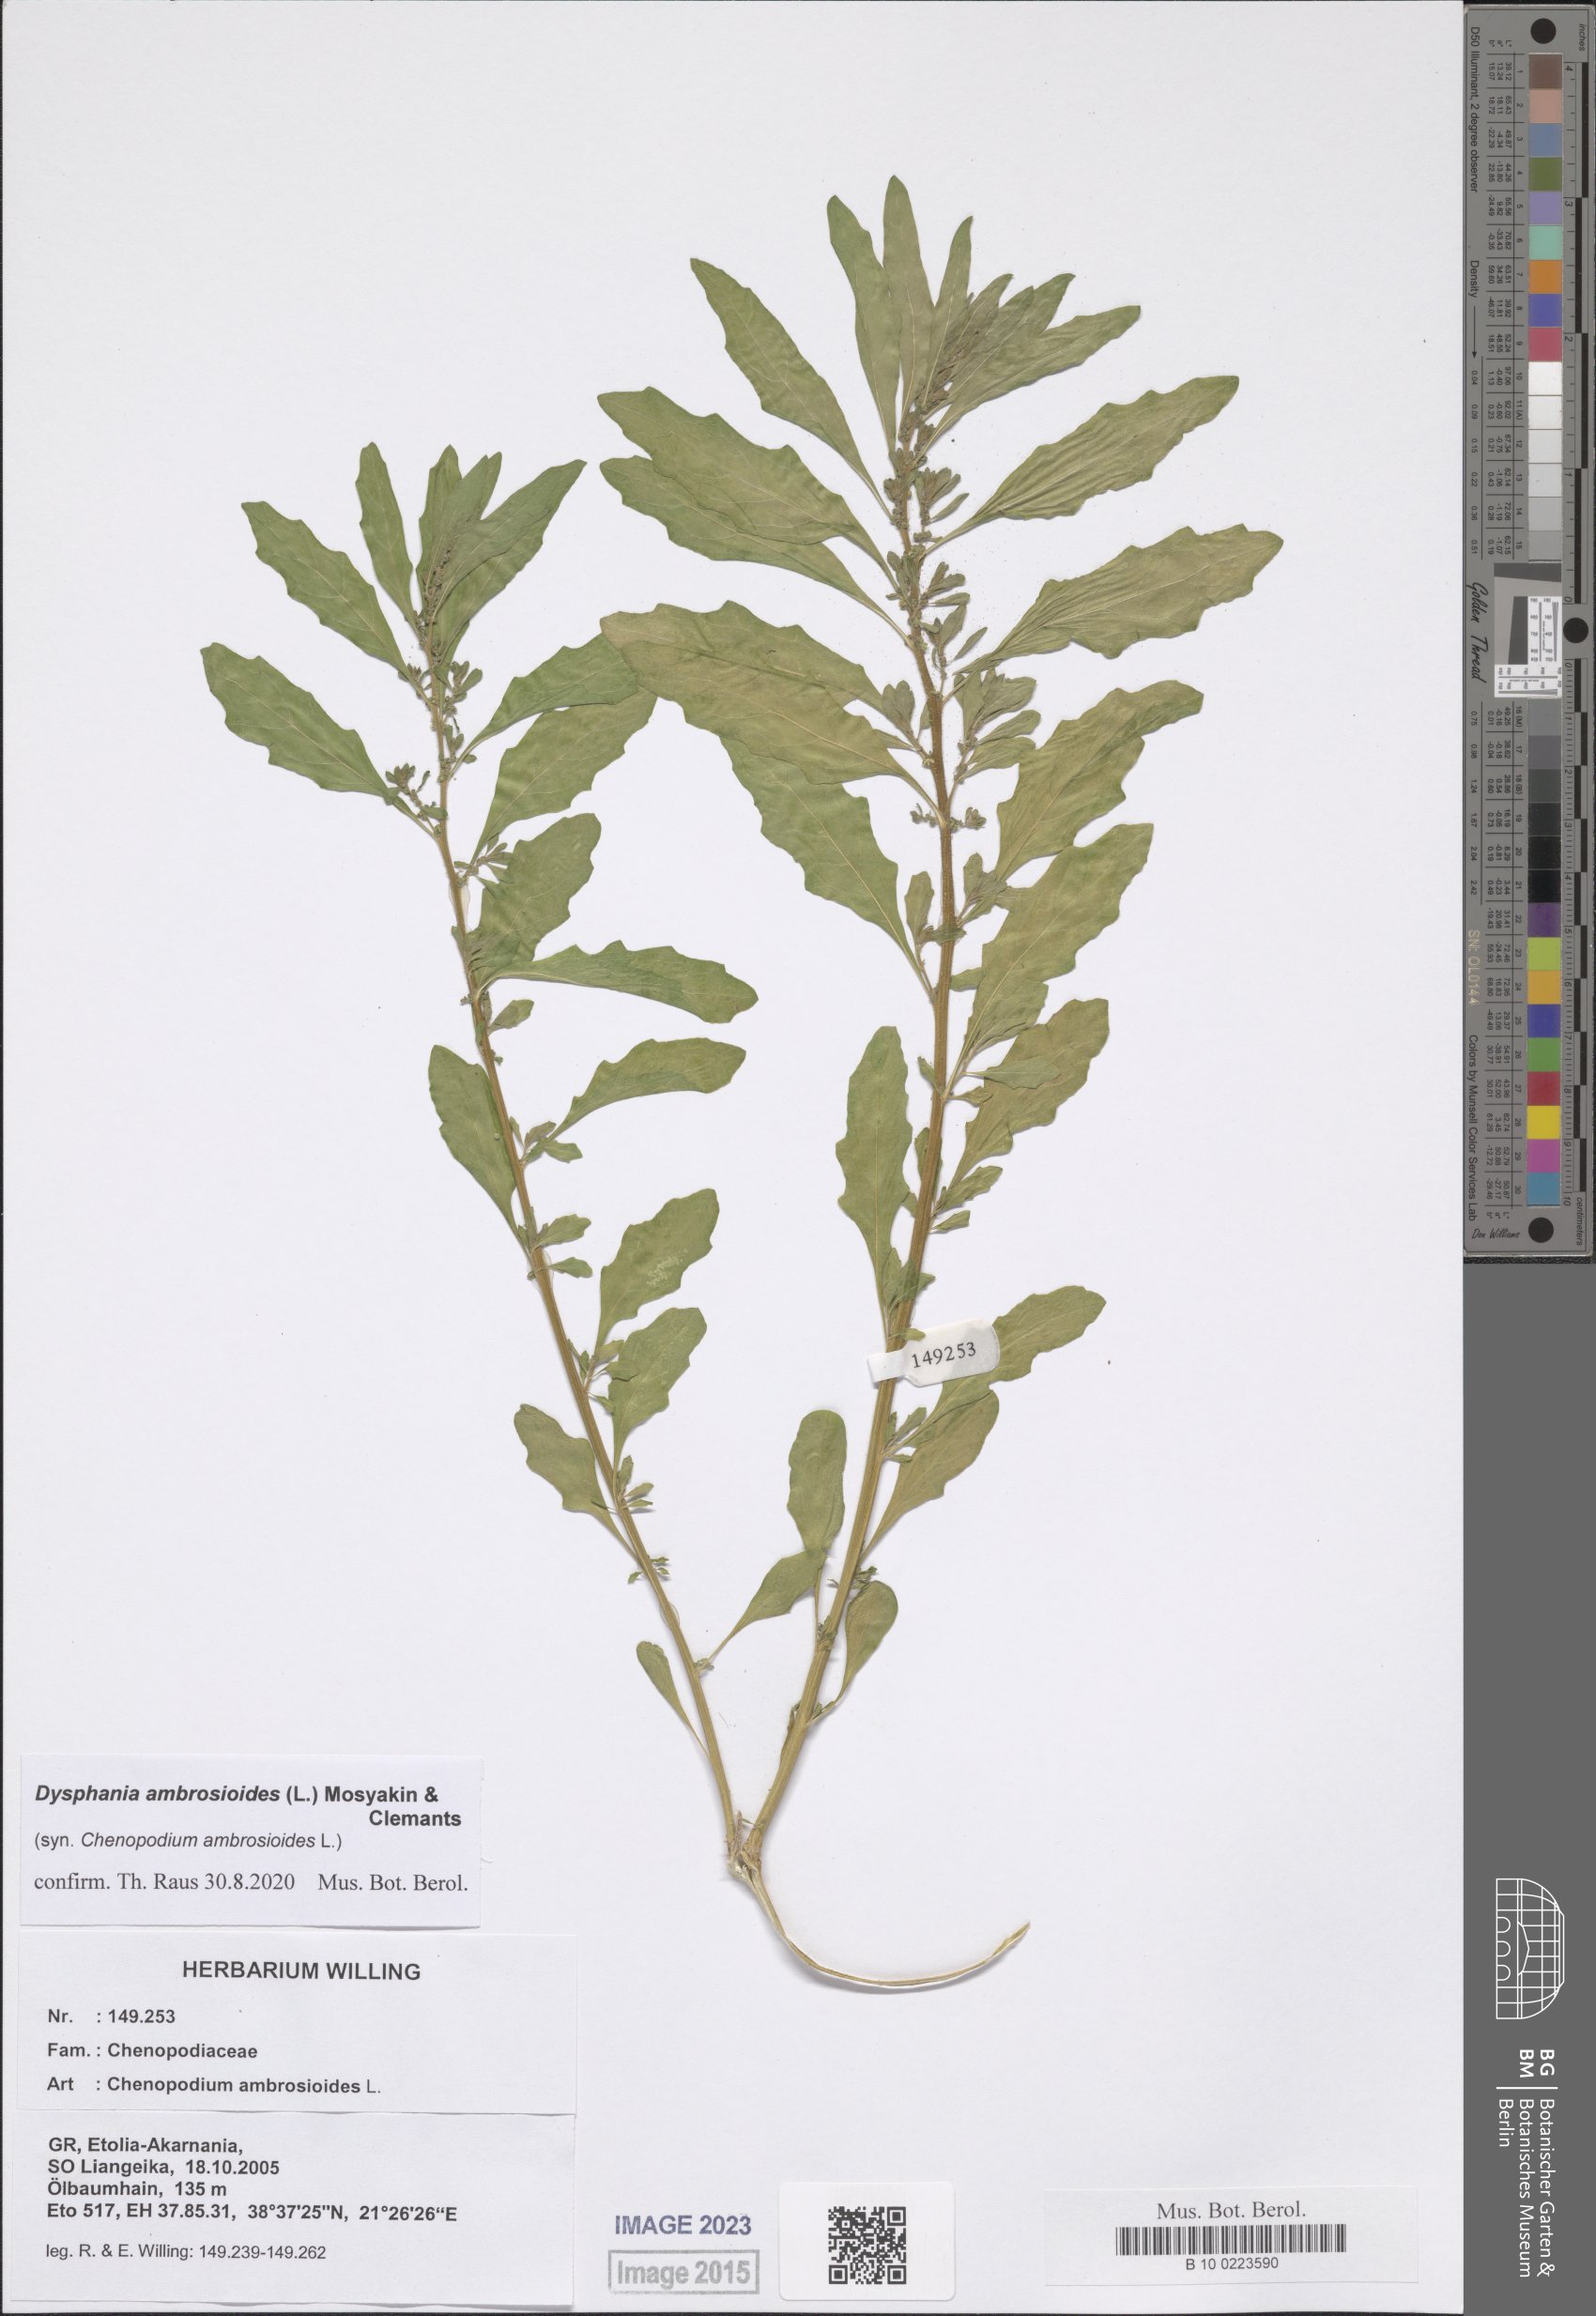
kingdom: Plantae
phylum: Tracheophyta
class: Magnoliopsida
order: Caryophyllales
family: Amaranthaceae
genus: Dysphania
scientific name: Dysphania ambrosioides
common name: Wormseed
